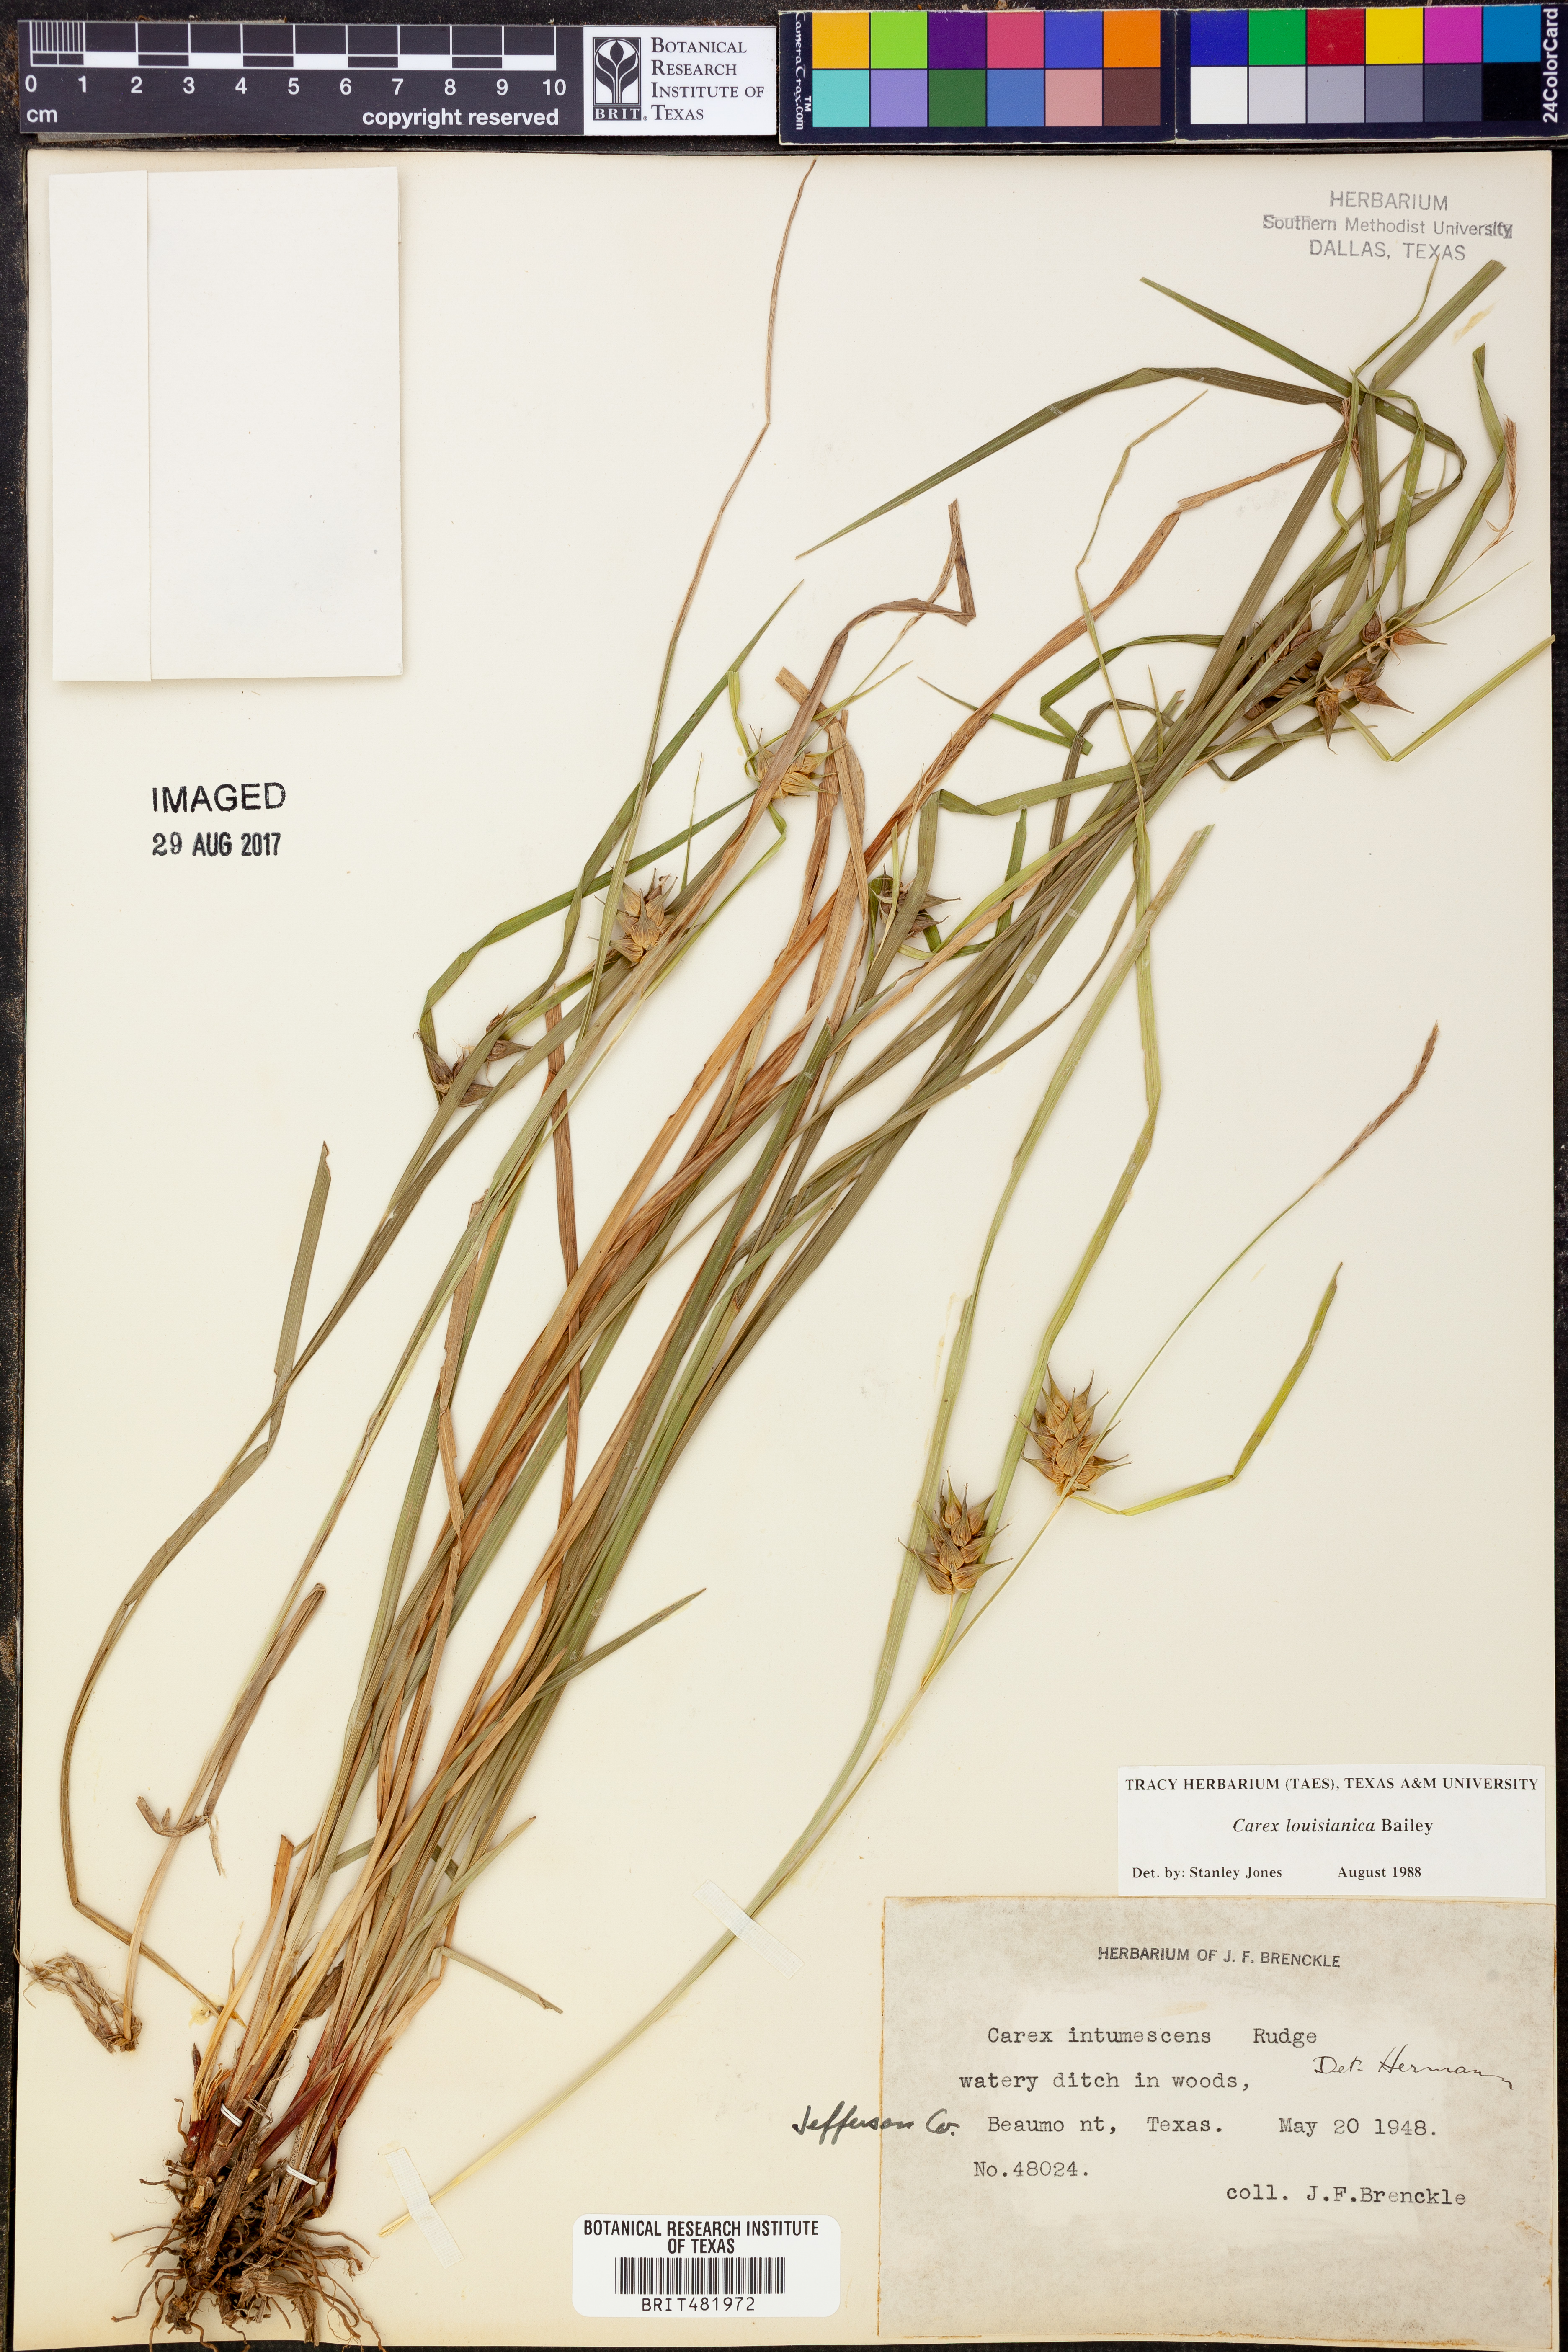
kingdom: Plantae
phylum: Tracheophyta
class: Liliopsida
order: Poales
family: Cyperaceae
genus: Carex
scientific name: Carex louisianica
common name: Louisiana sedge
